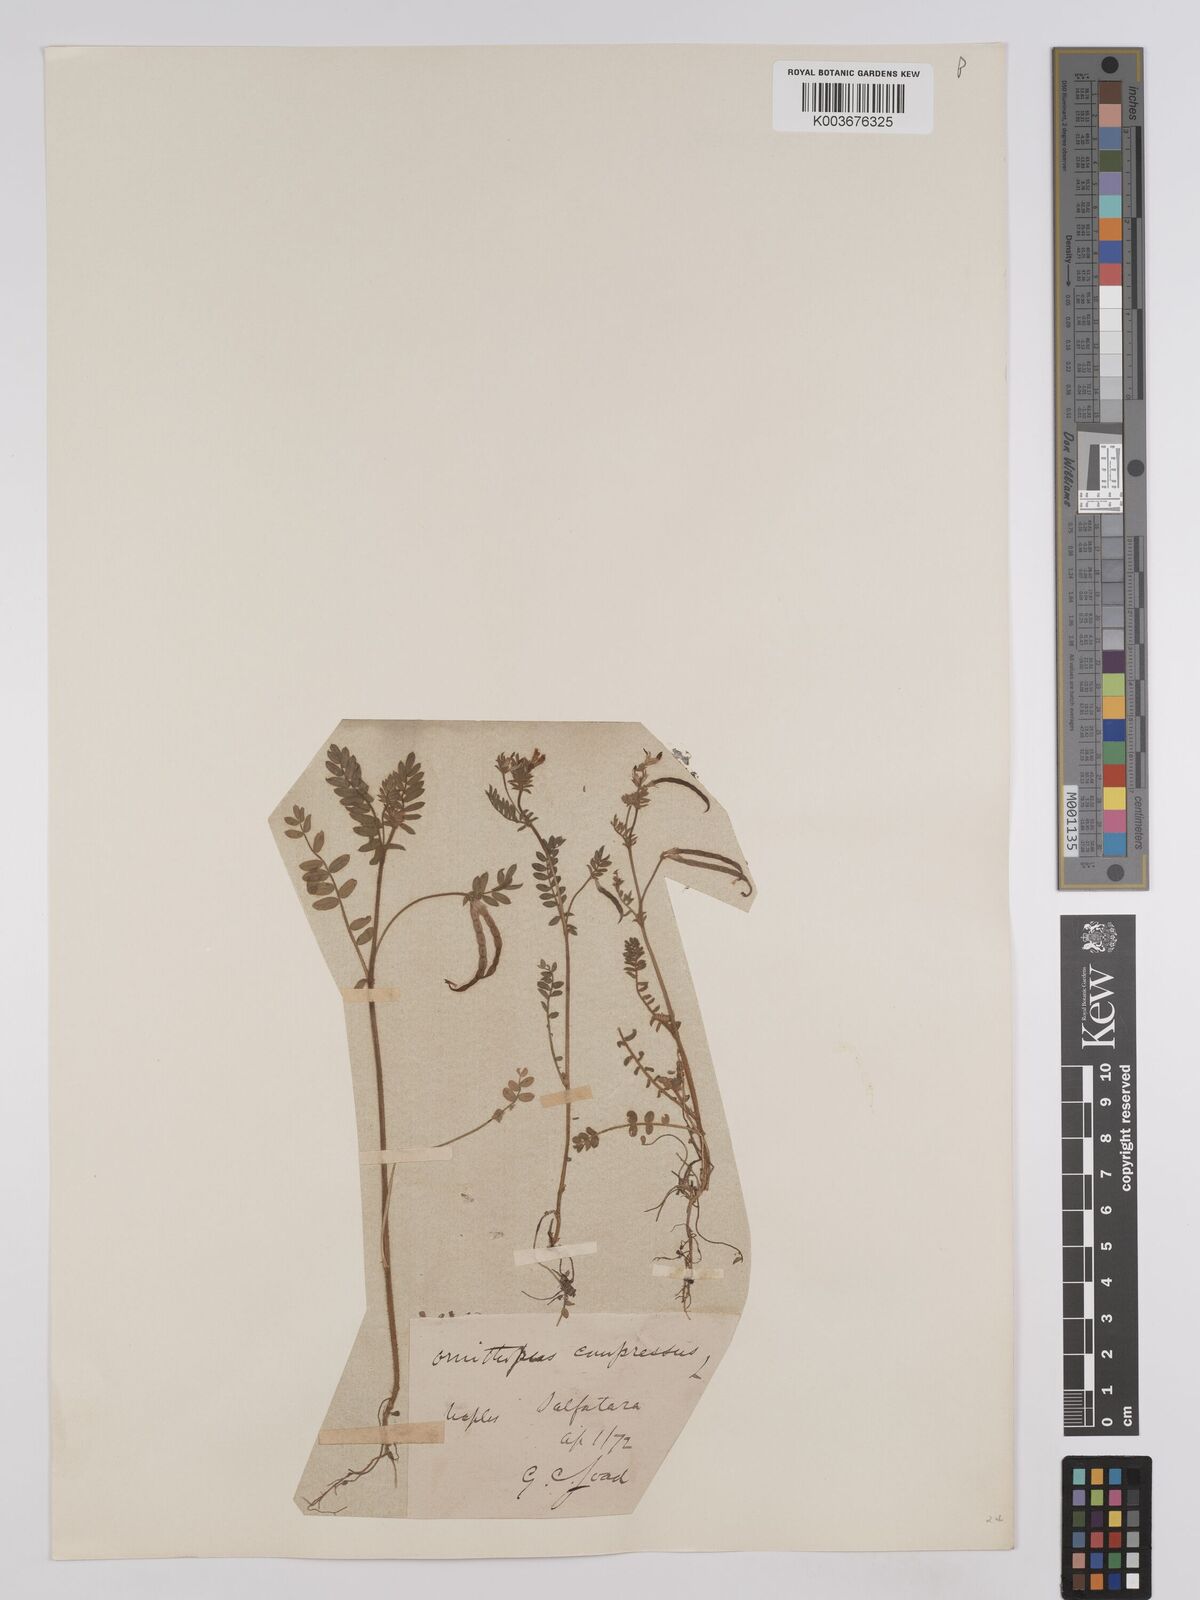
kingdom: Plantae
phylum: Tracheophyta
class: Magnoliopsida
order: Fabales
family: Fabaceae
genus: Ornithopus
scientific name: Ornithopus compressus
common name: Yellow serradella
